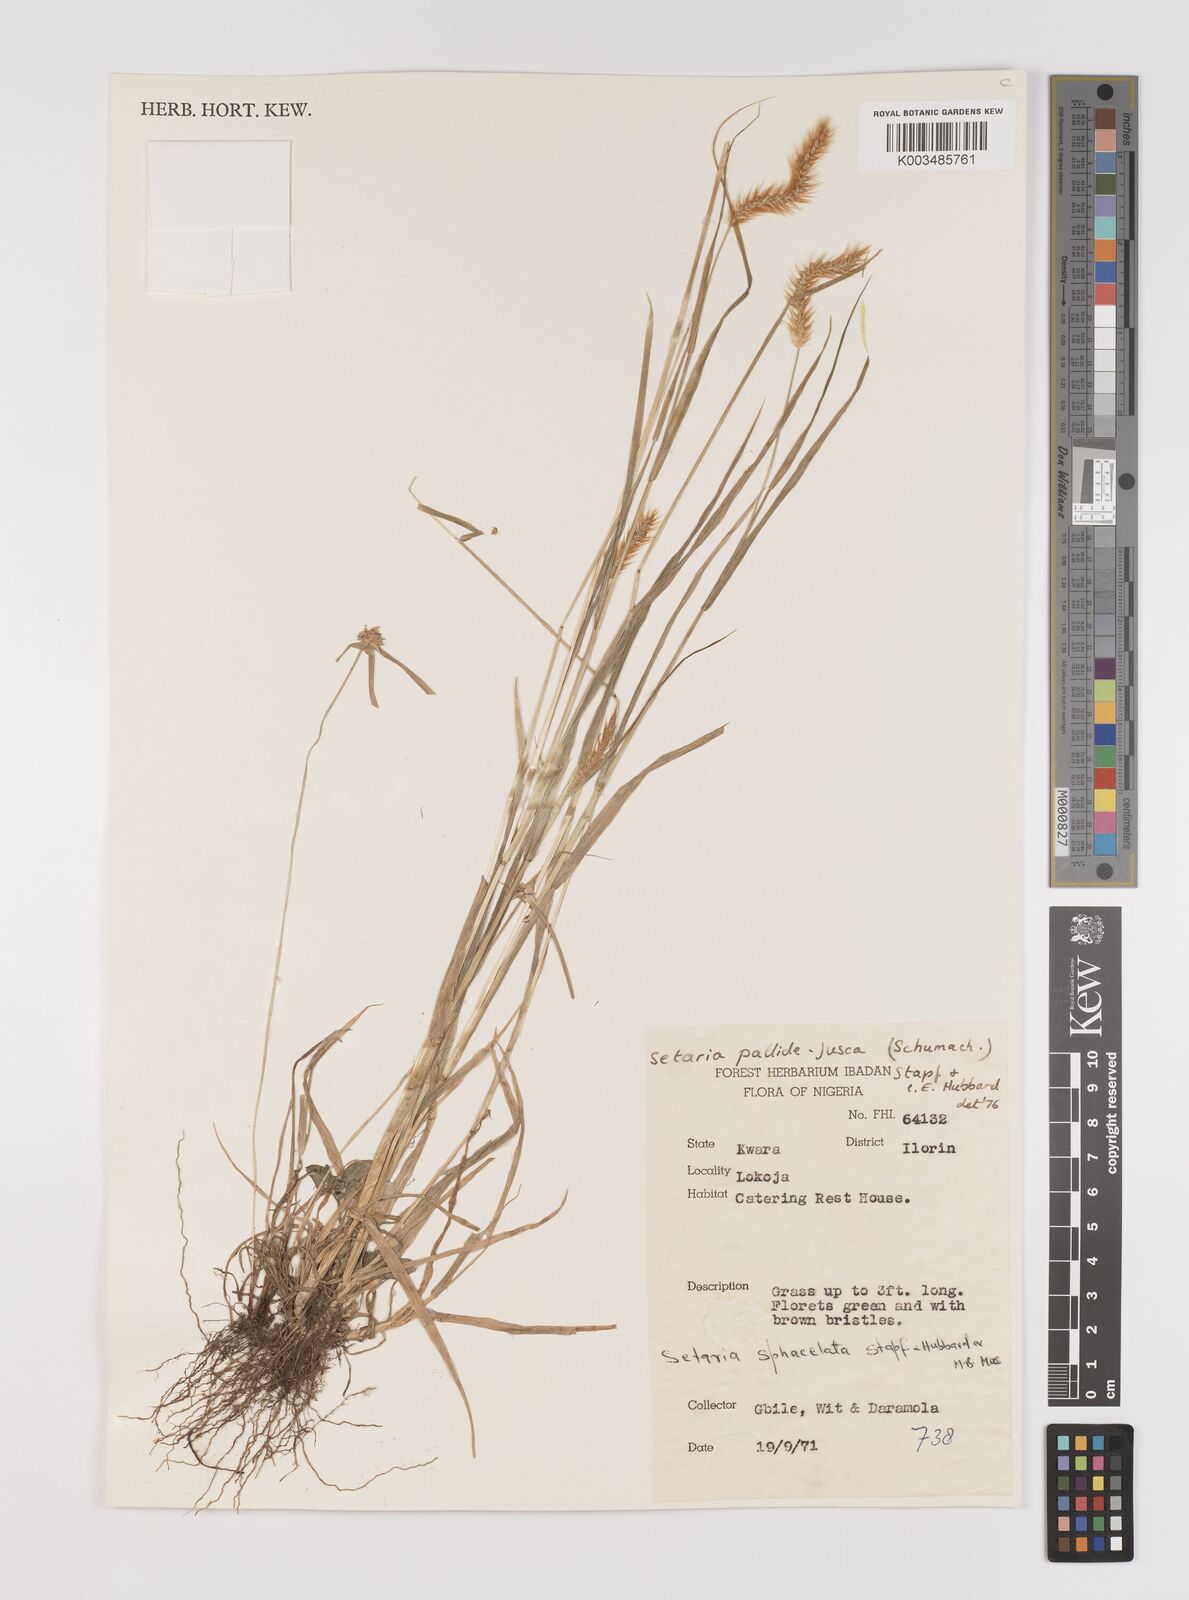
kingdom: Plantae
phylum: Tracheophyta
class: Liliopsida
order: Poales
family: Poaceae
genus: Setaria
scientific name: Setaria sphacelata
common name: African bristlegrass
